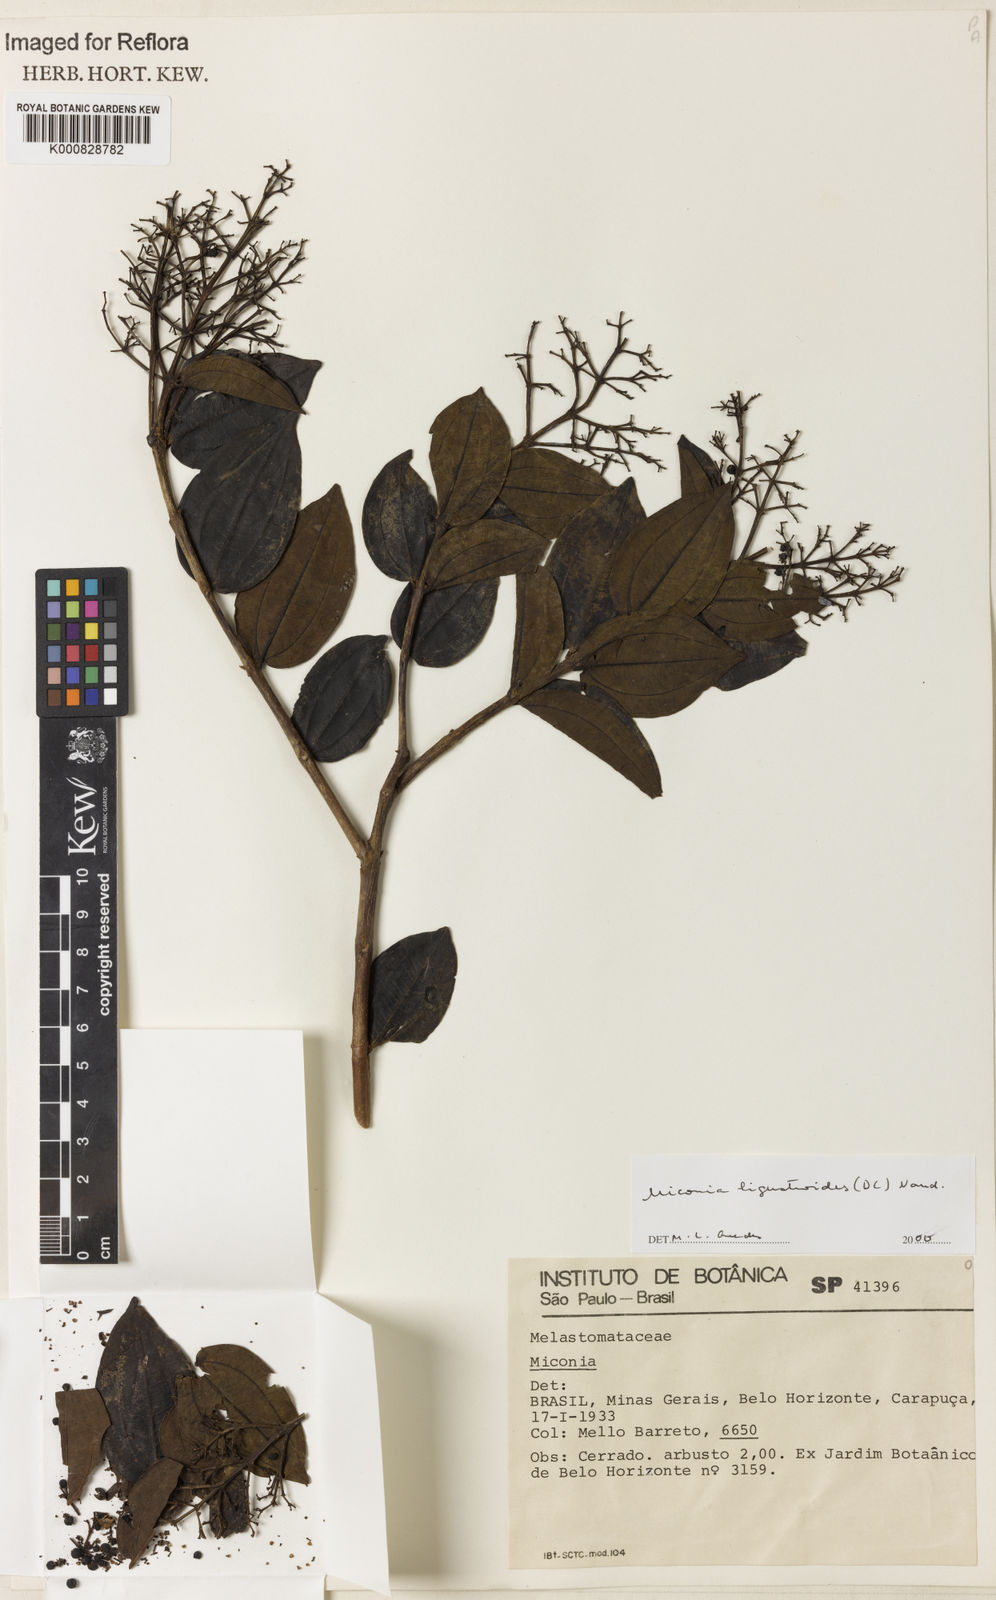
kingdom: Plantae
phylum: Tracheophyta
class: Magnoliopsida
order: Myrtales
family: Melastomataceae
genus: Miconia
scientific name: Miconia ligustroides
